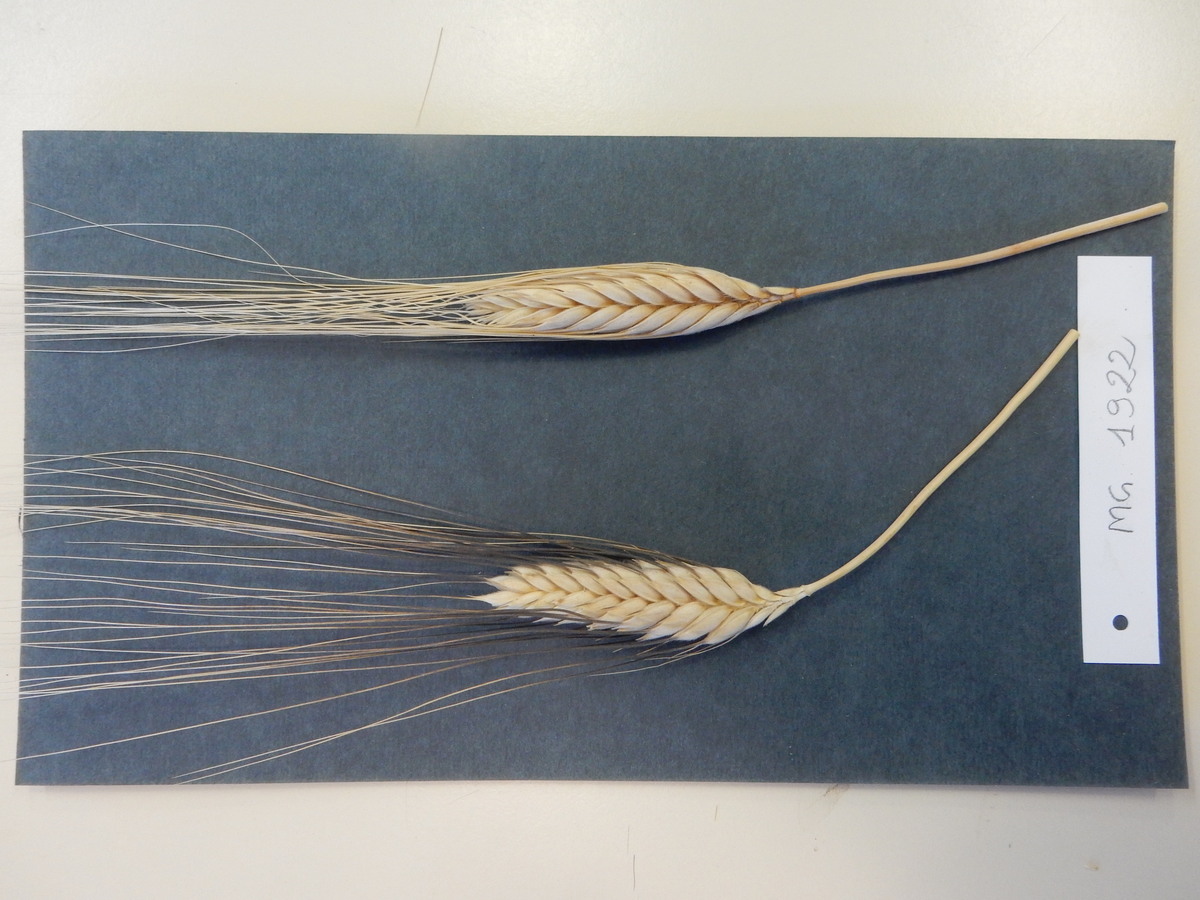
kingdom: Plantae
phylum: Tracheophyta
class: Liliopsida
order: Poales
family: Poaceae
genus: Triticum
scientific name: Triticum turgidum
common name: Wheat
